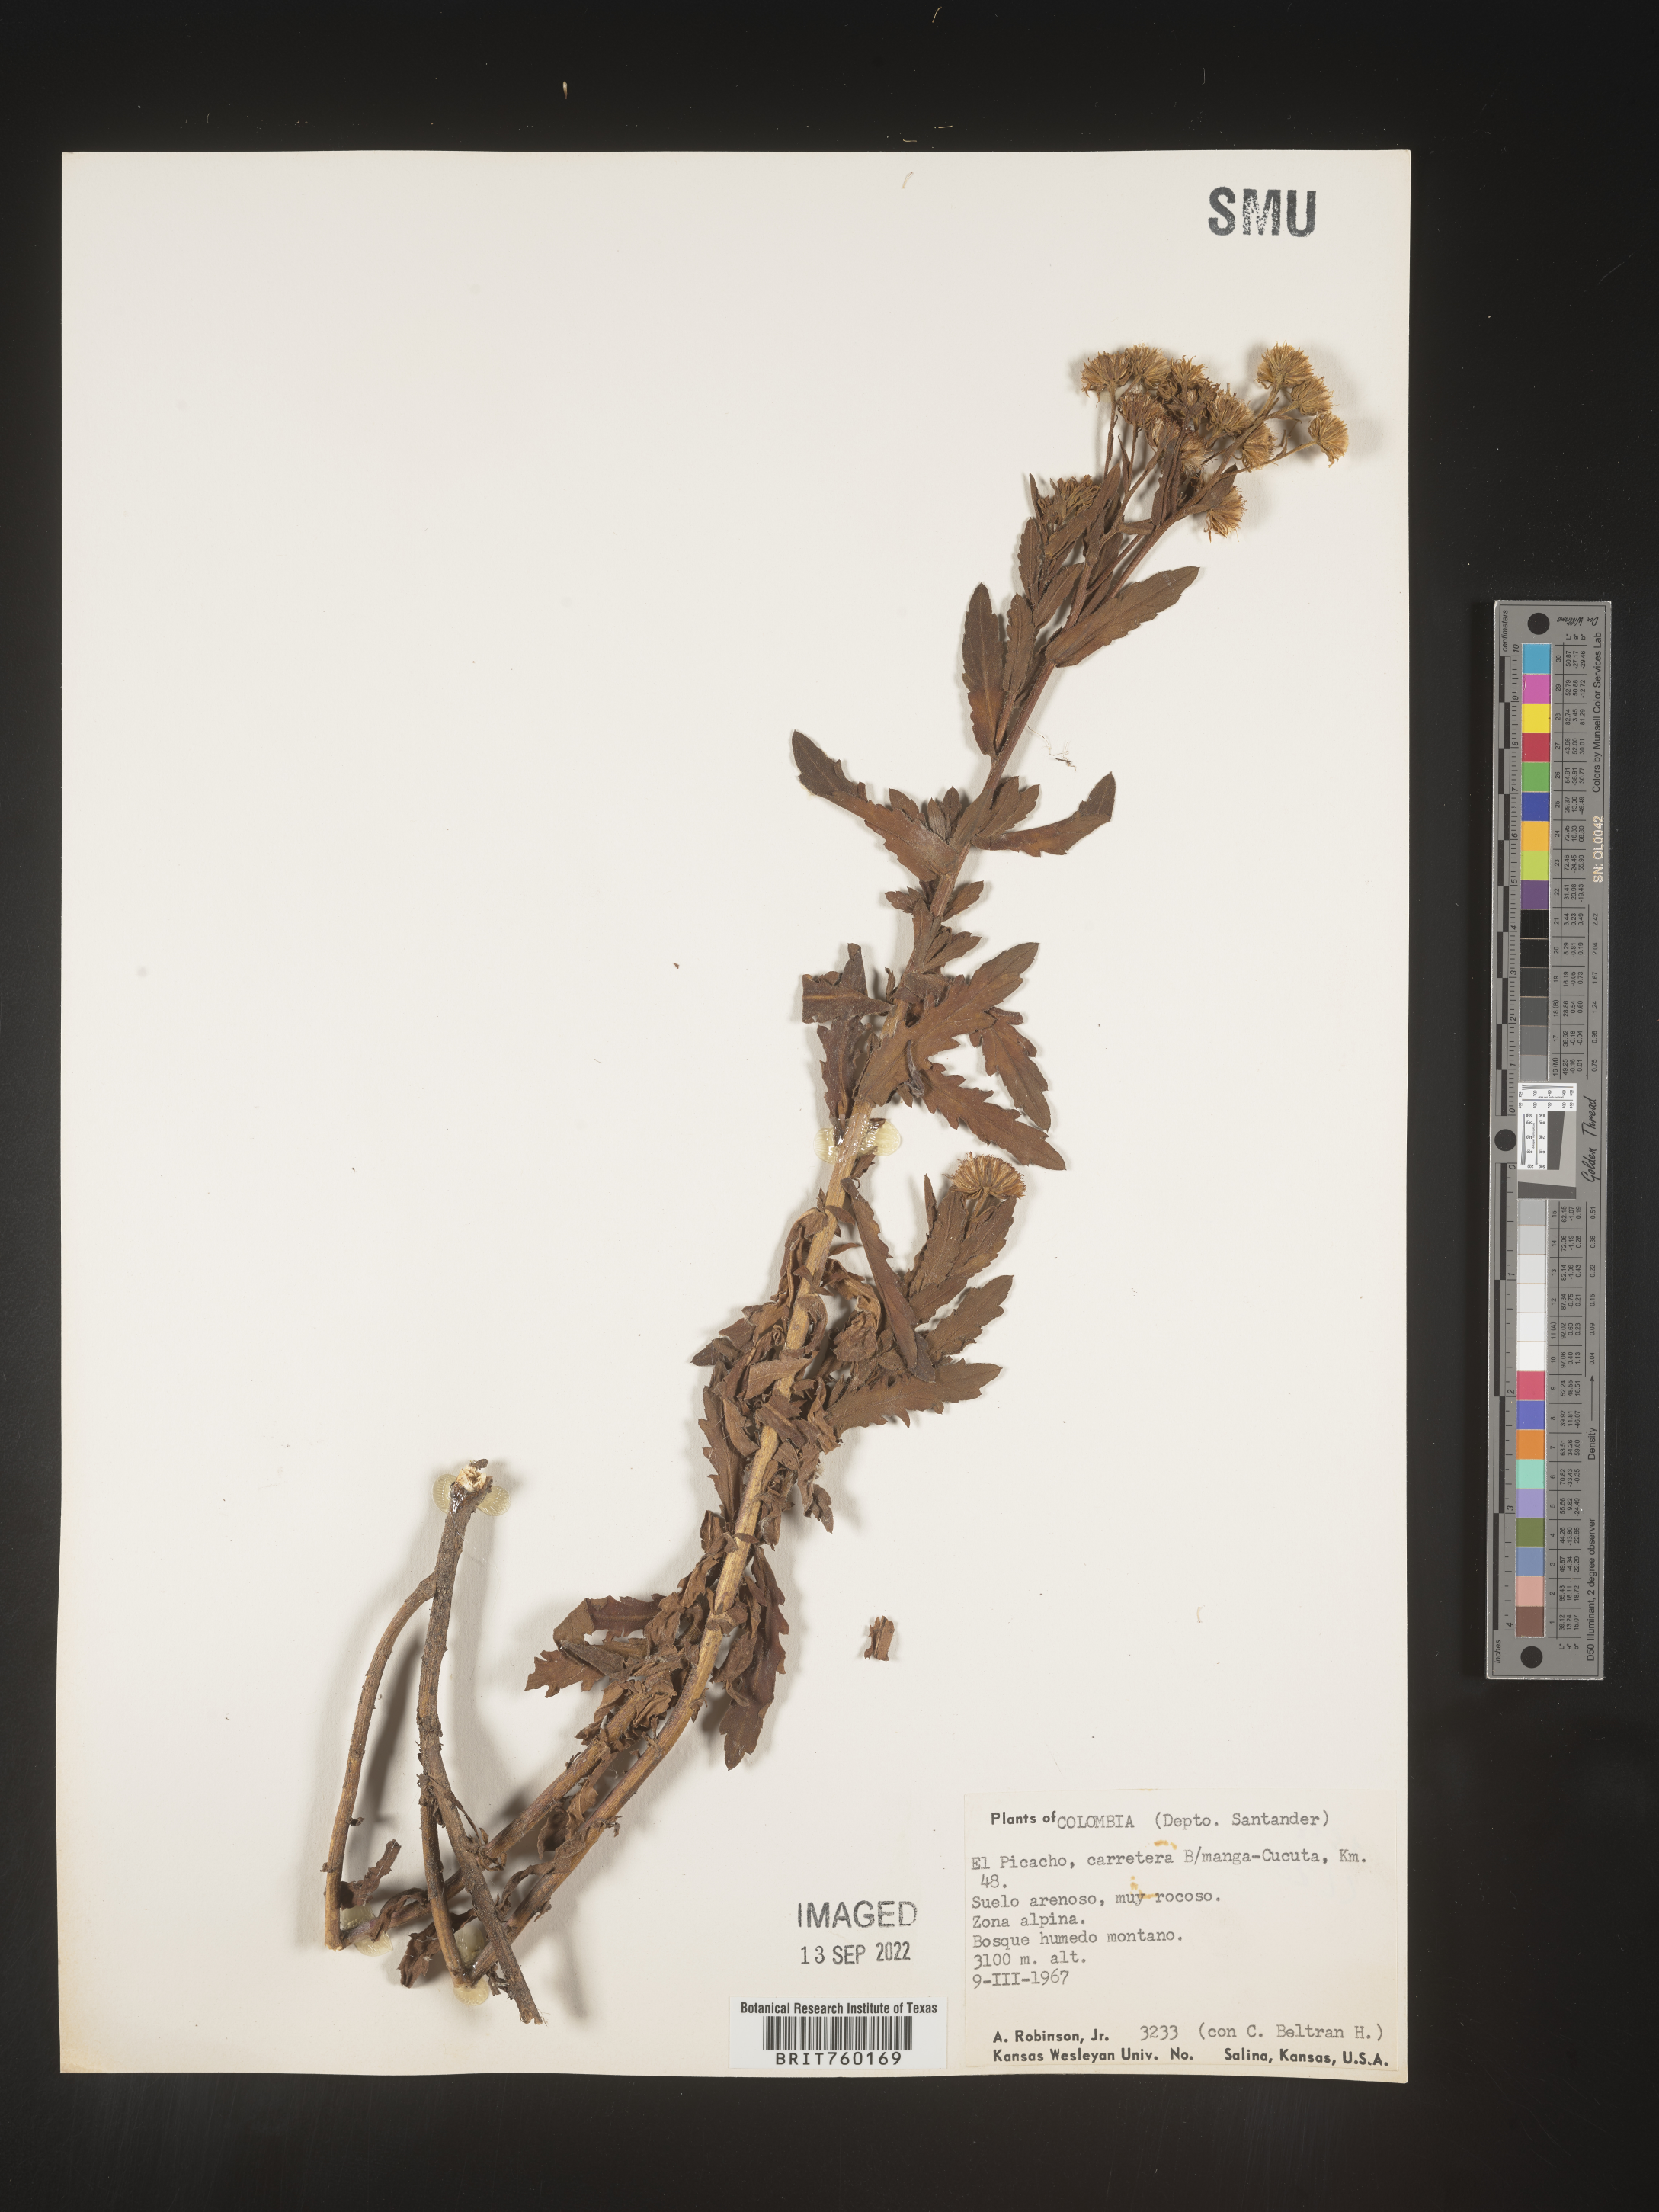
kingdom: Plantae
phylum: Tracheophyta
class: Magnoliopsida
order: Asterales
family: Asteraceae
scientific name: Asteraceae
